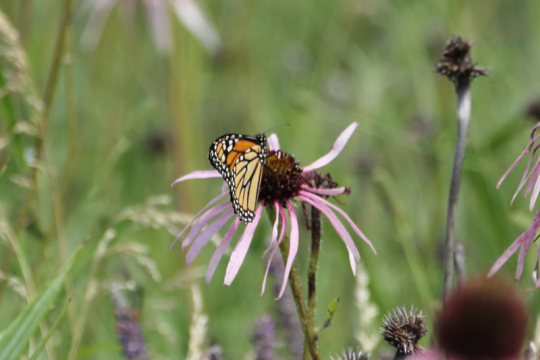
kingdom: Animalia
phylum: Arthropoda
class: Insecta
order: Lepidoptera
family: Nymphalidae
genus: Danaus
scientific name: Danaus plexippus
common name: Monarch
